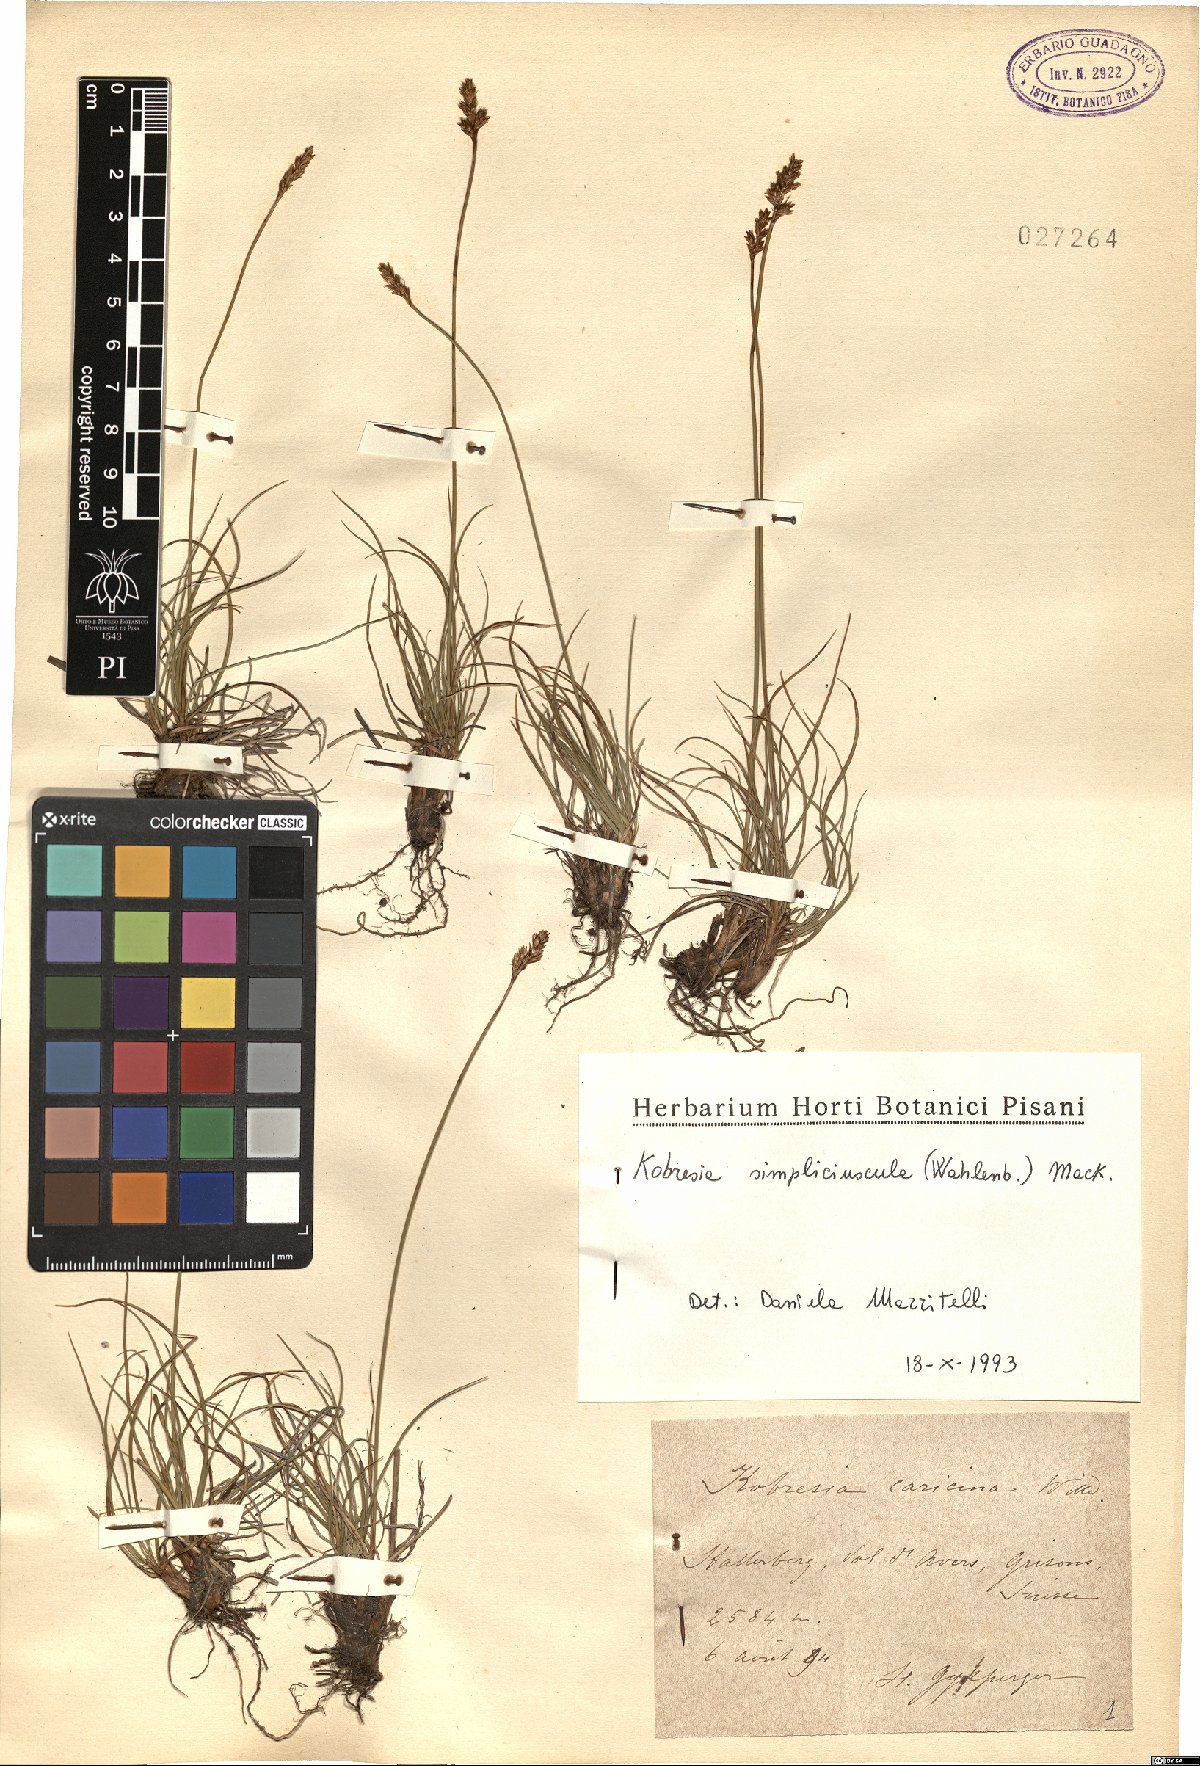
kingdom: Plantae
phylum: Tracheophyta
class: Liliopsida
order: Poales
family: Cyperaceae
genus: Carex
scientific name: Carex simpliciuscula
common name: Simple bog sedge
